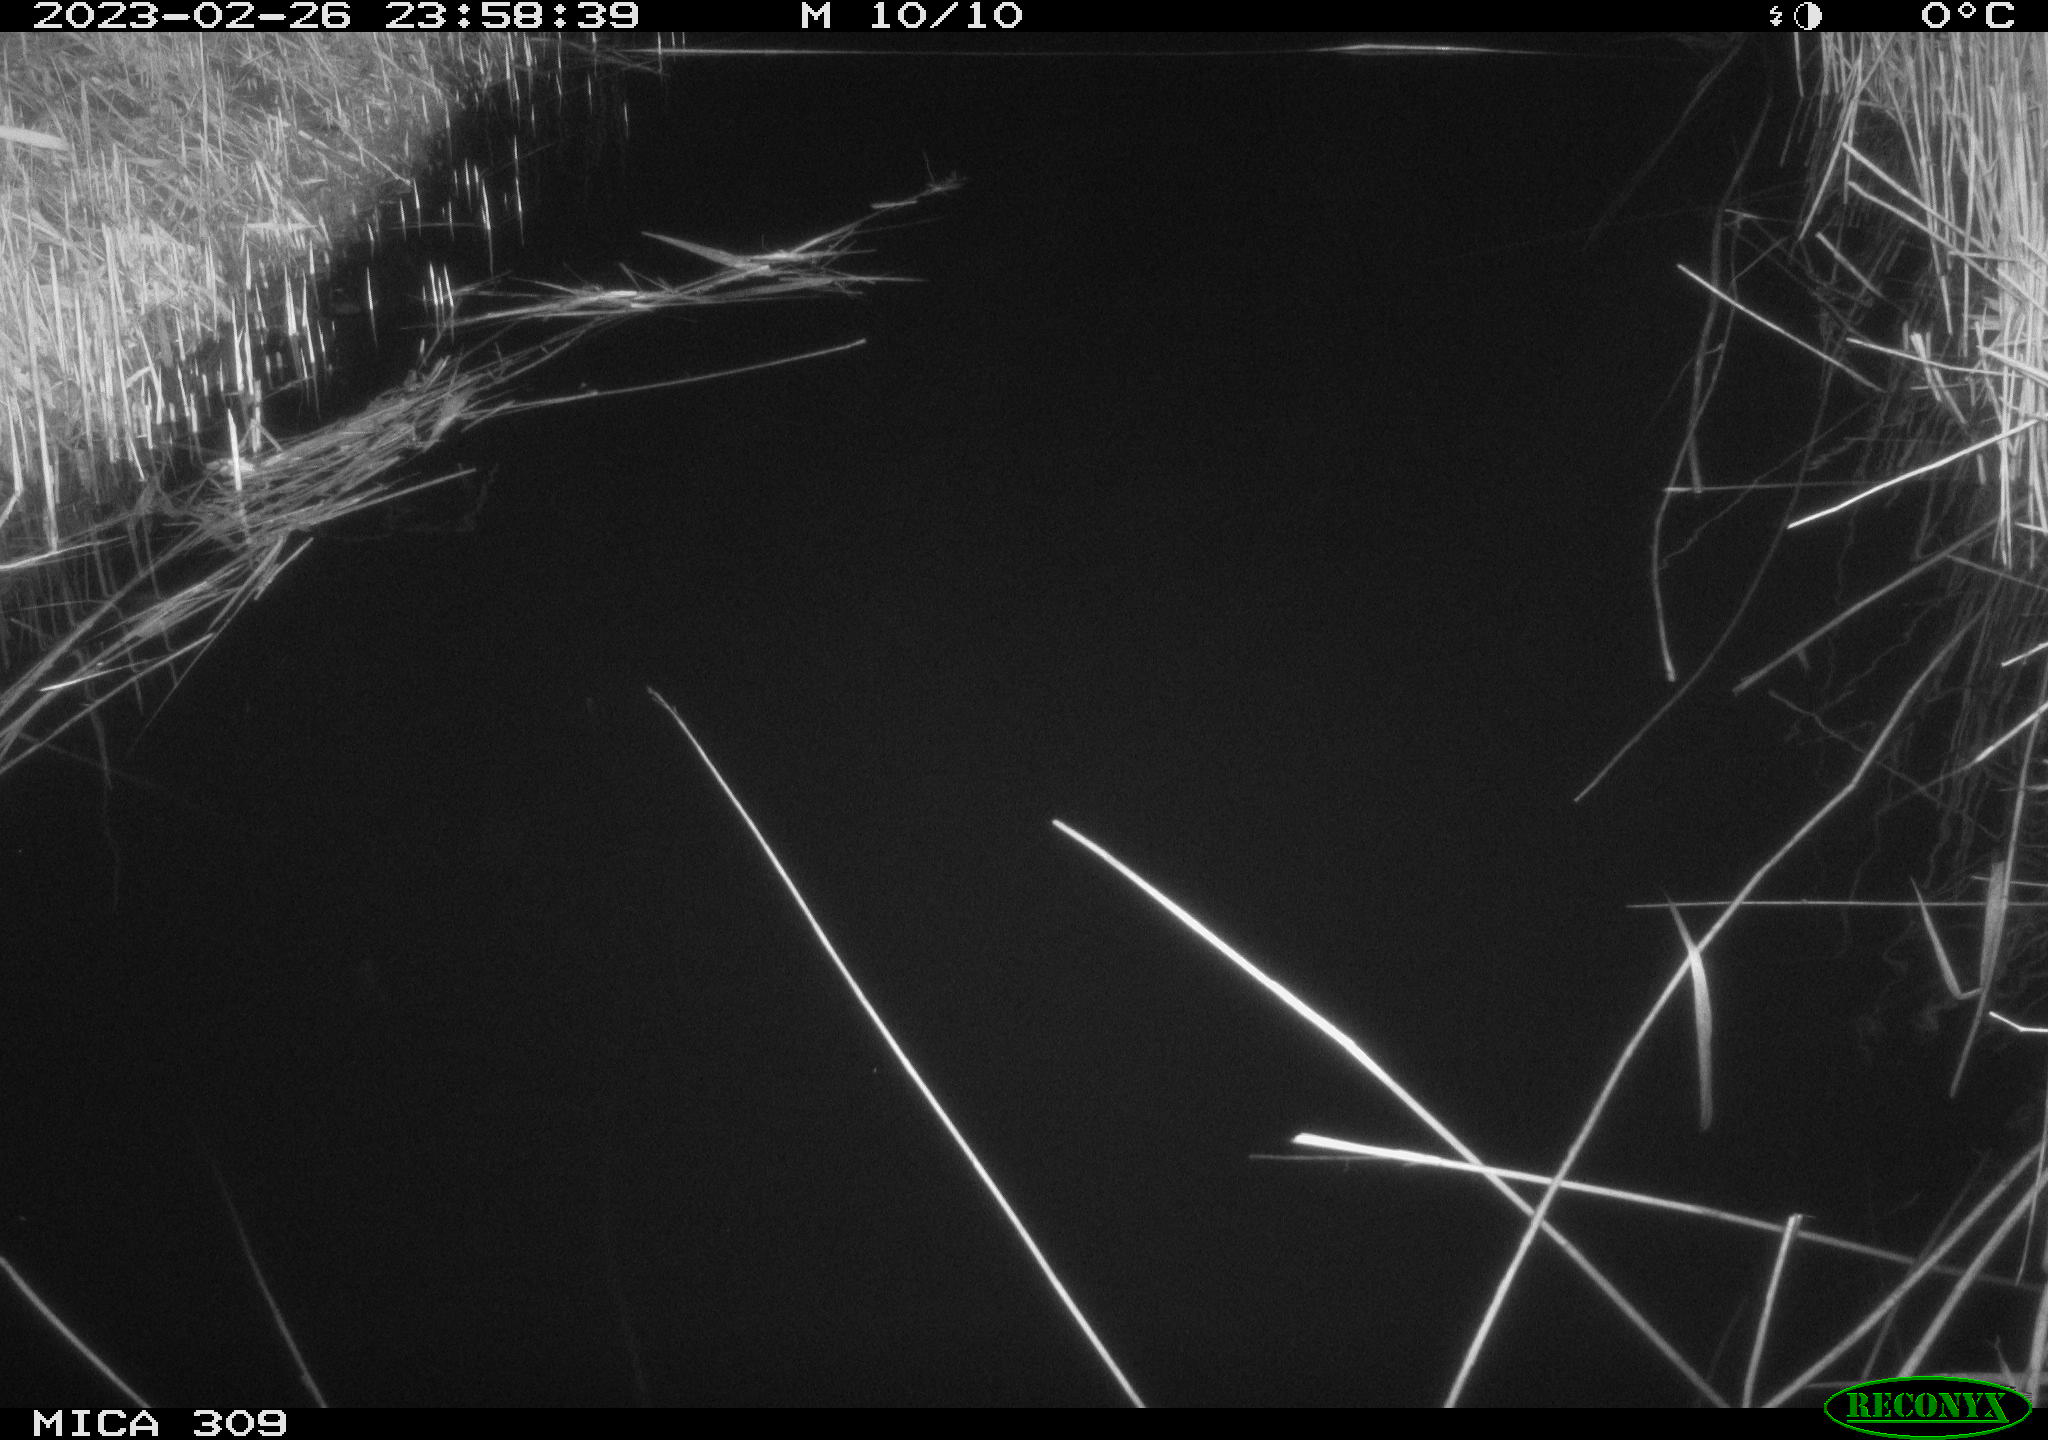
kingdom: Animalia
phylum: Chordata
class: Aves
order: Anseriformes
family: Anatidae
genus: Anas
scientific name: Anas
